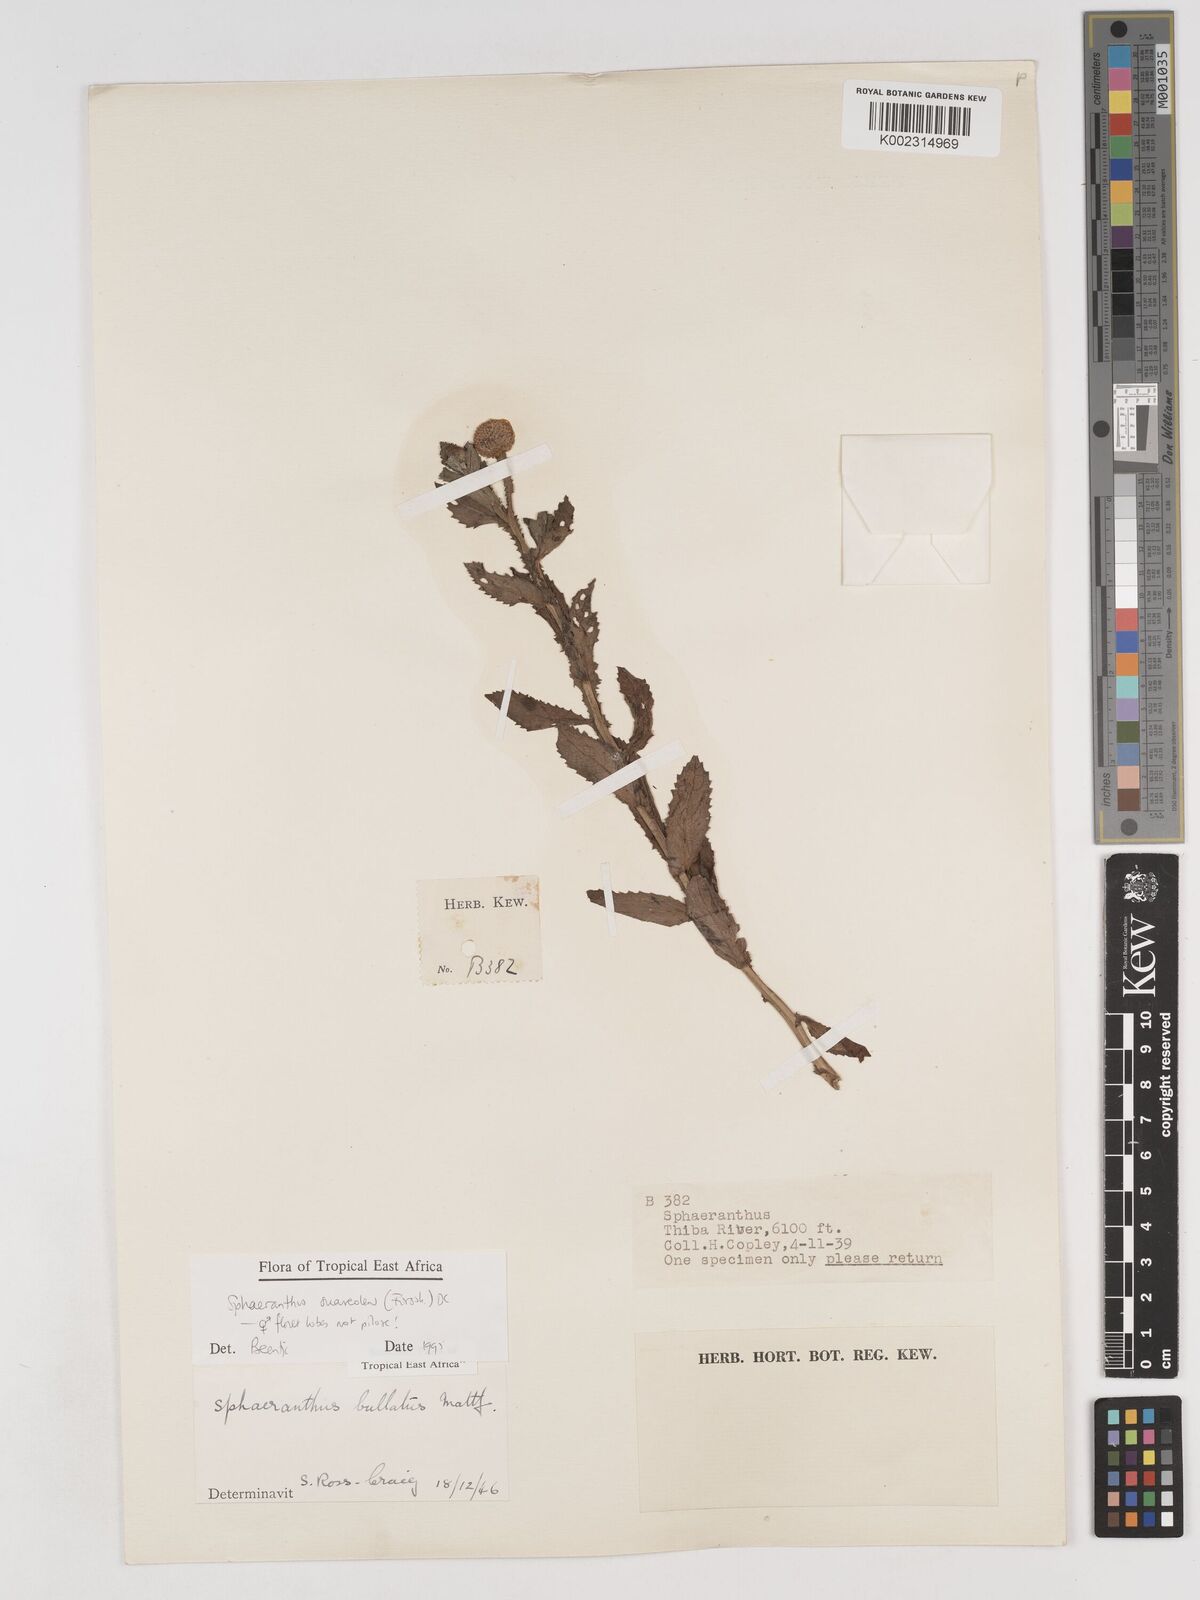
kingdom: Plantae
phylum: Tracheophyta
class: Magnoliopsida
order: Asterales
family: Asteraceae
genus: Sphaeranthus
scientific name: Sphaeranthus suaveolens
